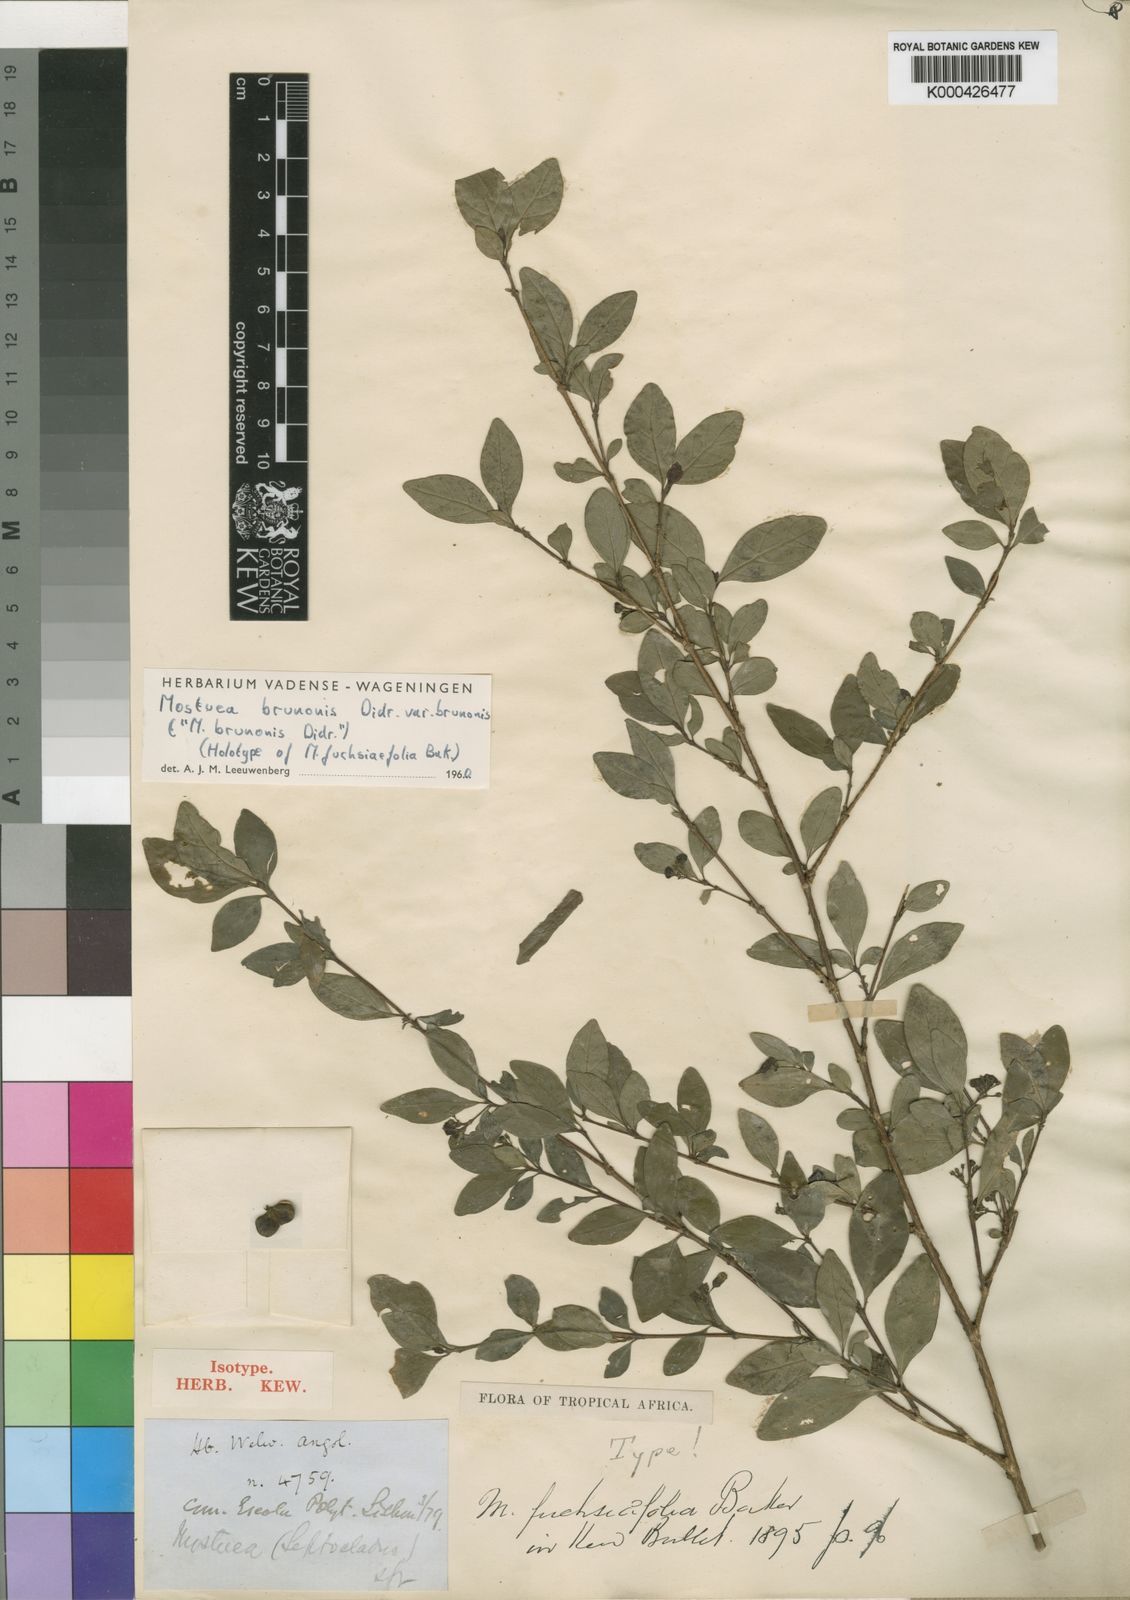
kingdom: Plantae
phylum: Tracheophyta
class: Magnoliopsida
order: Gentianales
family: Gelsemiaceae
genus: Mostuea
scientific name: Mostuea brunonis
